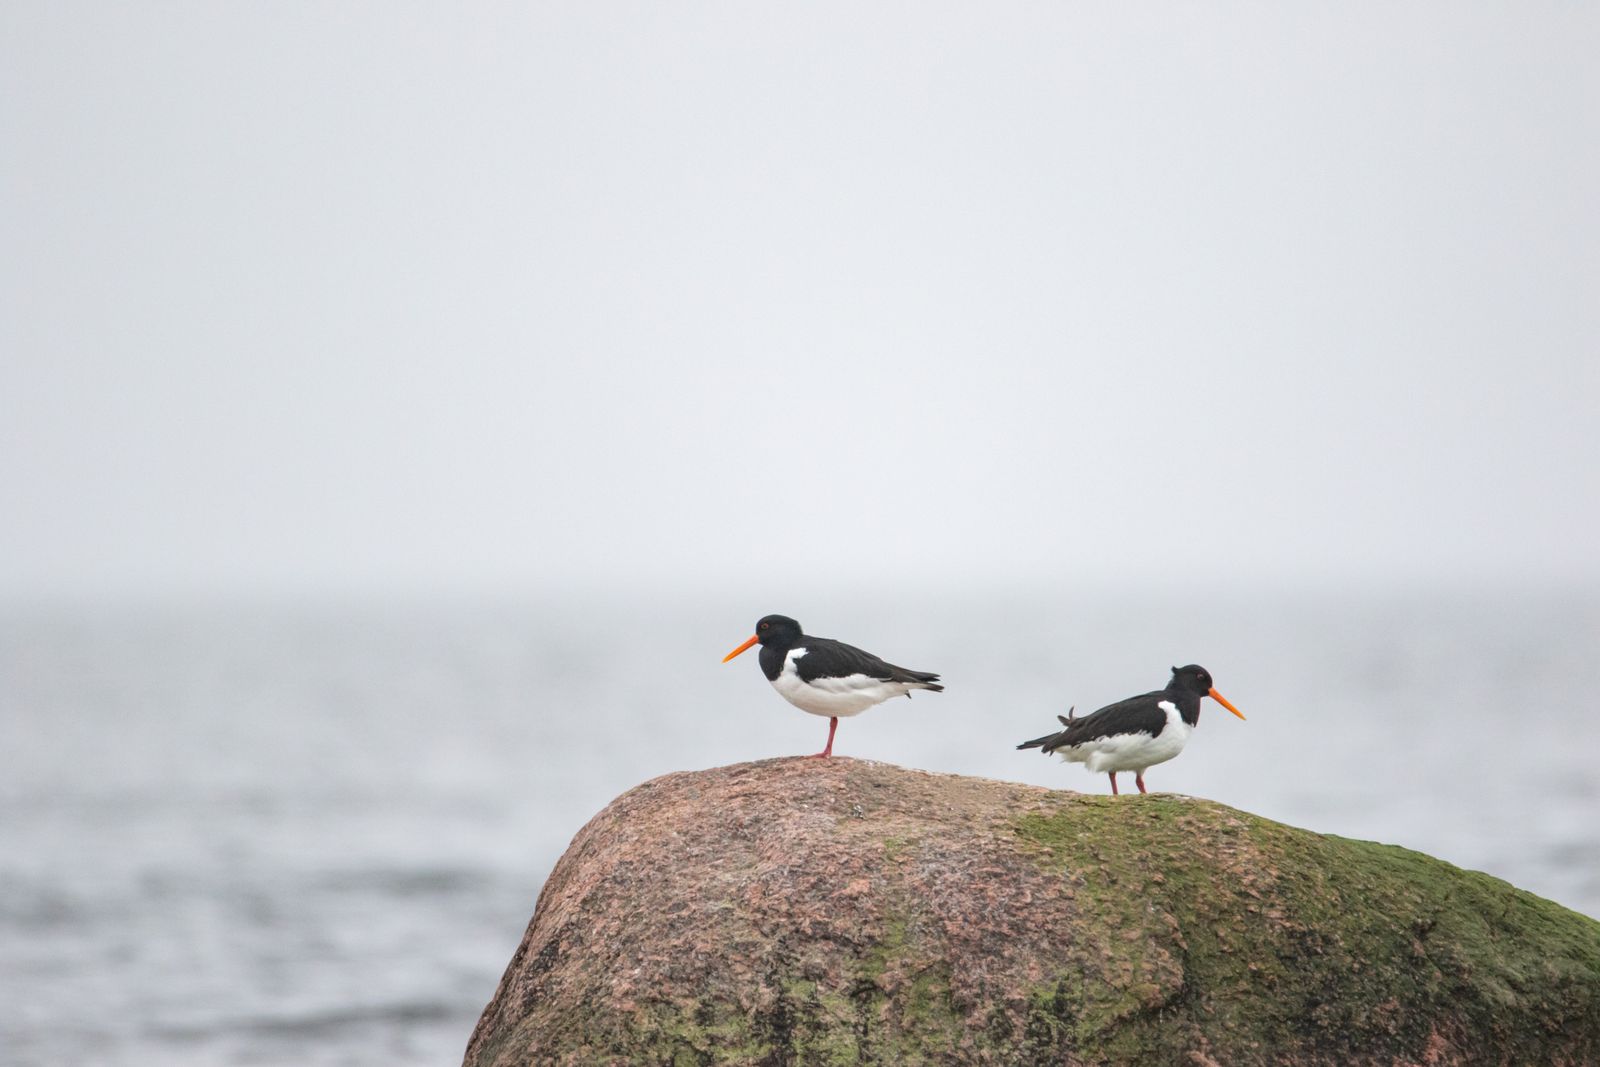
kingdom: Animalia
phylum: Chordata
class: Aves
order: Charadriiformes
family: Haematopodidae
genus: Haematopus
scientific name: Haematopus ostralegus
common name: Eurasian oystercatcher
